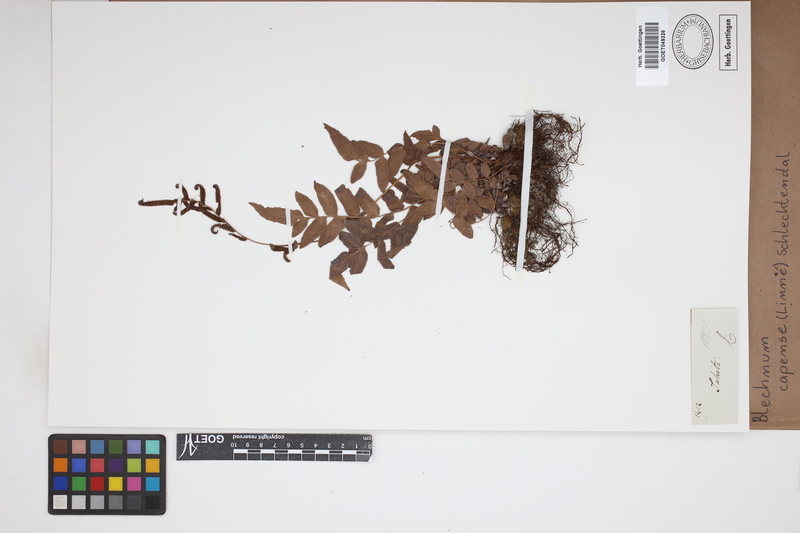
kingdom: Plantae
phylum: Tracheophyta
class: Polypodiopsida
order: Polypodiales
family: Blechnaceae
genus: Parablechnum
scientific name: Parablechnum capense
